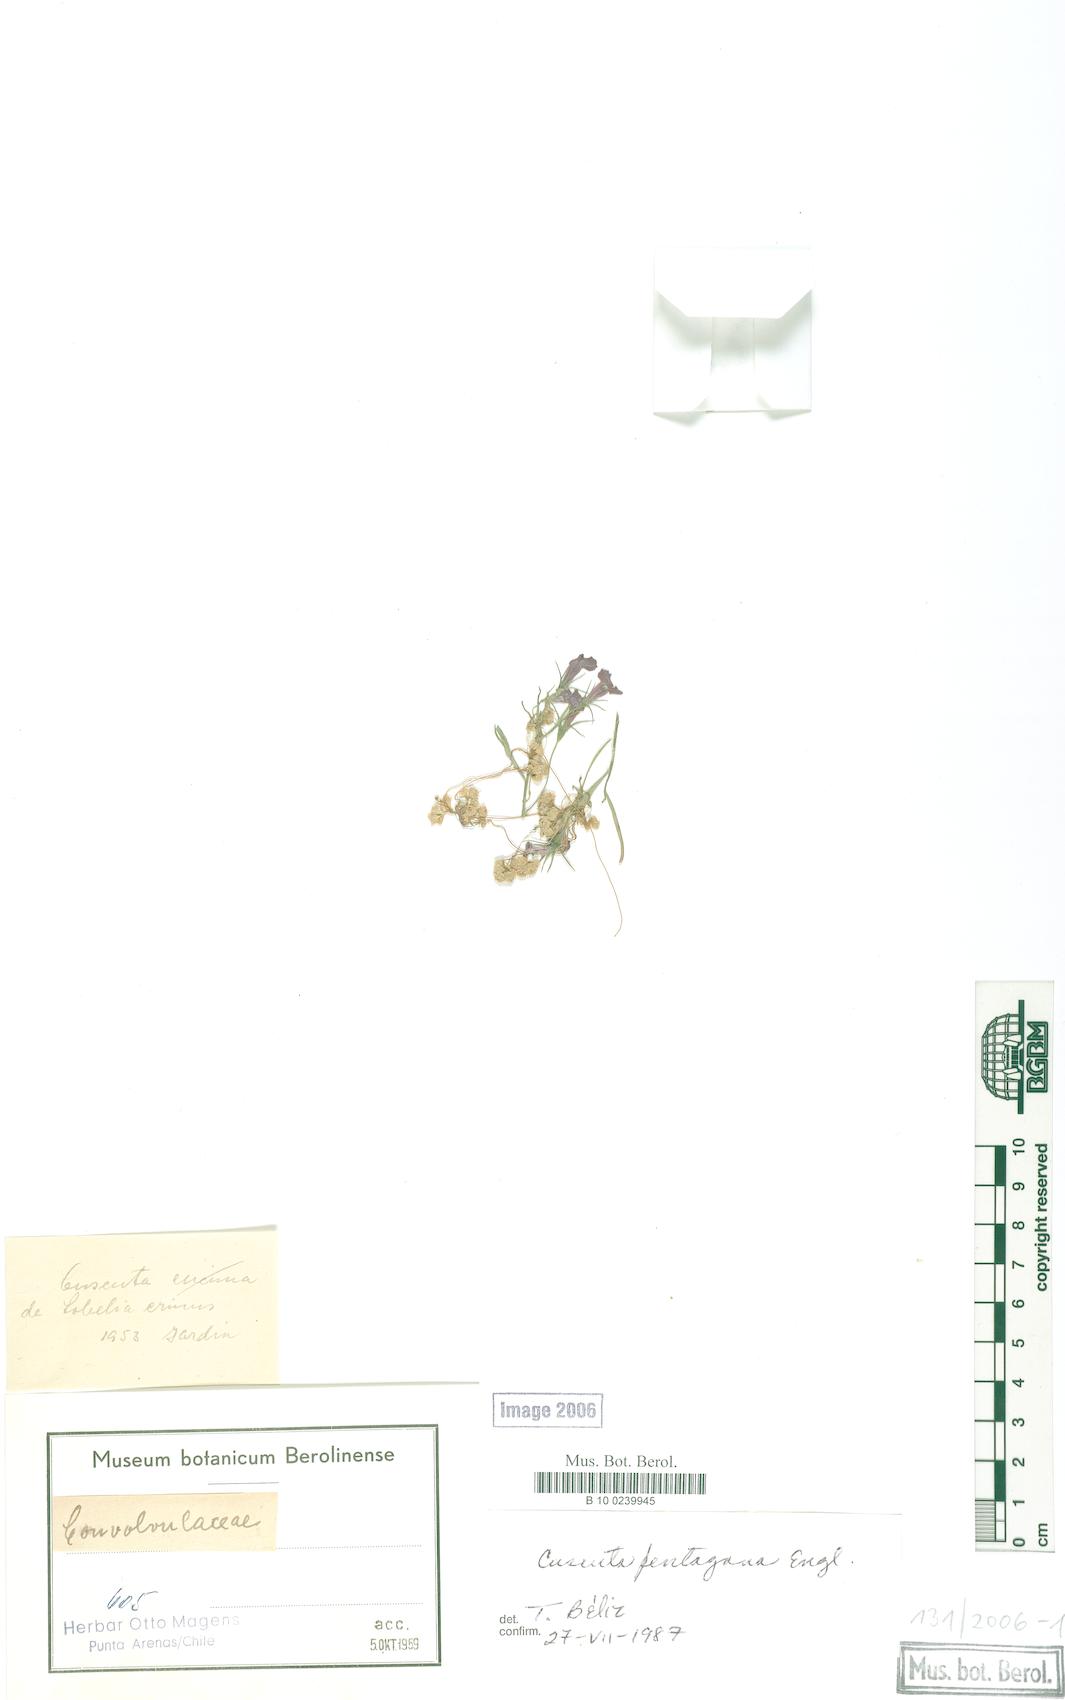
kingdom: Plantae
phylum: Tracheophyta
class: Magnoliopsida
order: Solanales
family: Convolvulaceae
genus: Cuscuta
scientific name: Cuscuta pentagona
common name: Fiveangled dodder
